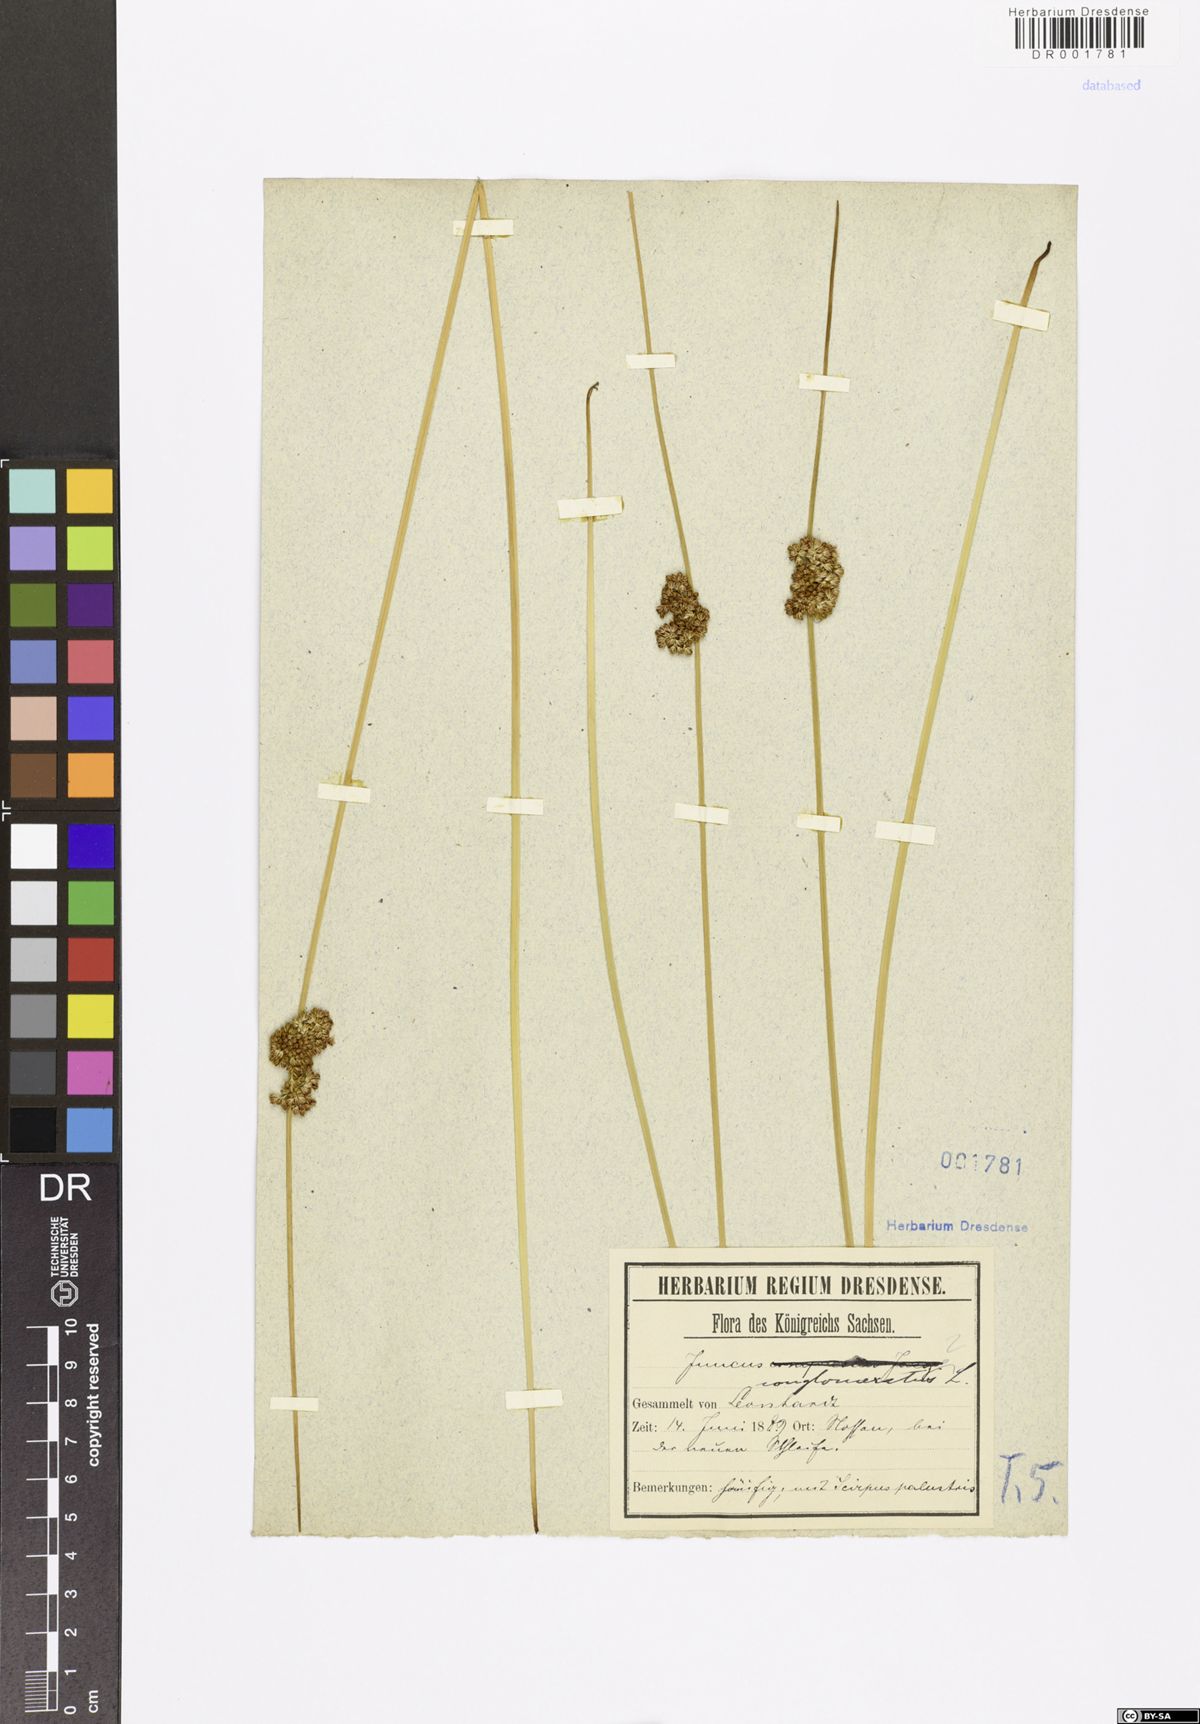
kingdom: Plantae
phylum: Tracheophyta
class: Liliopsida
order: Poales
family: Juncaceae
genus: Juncus
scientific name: Juncus conglomeratus
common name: Compact rush
